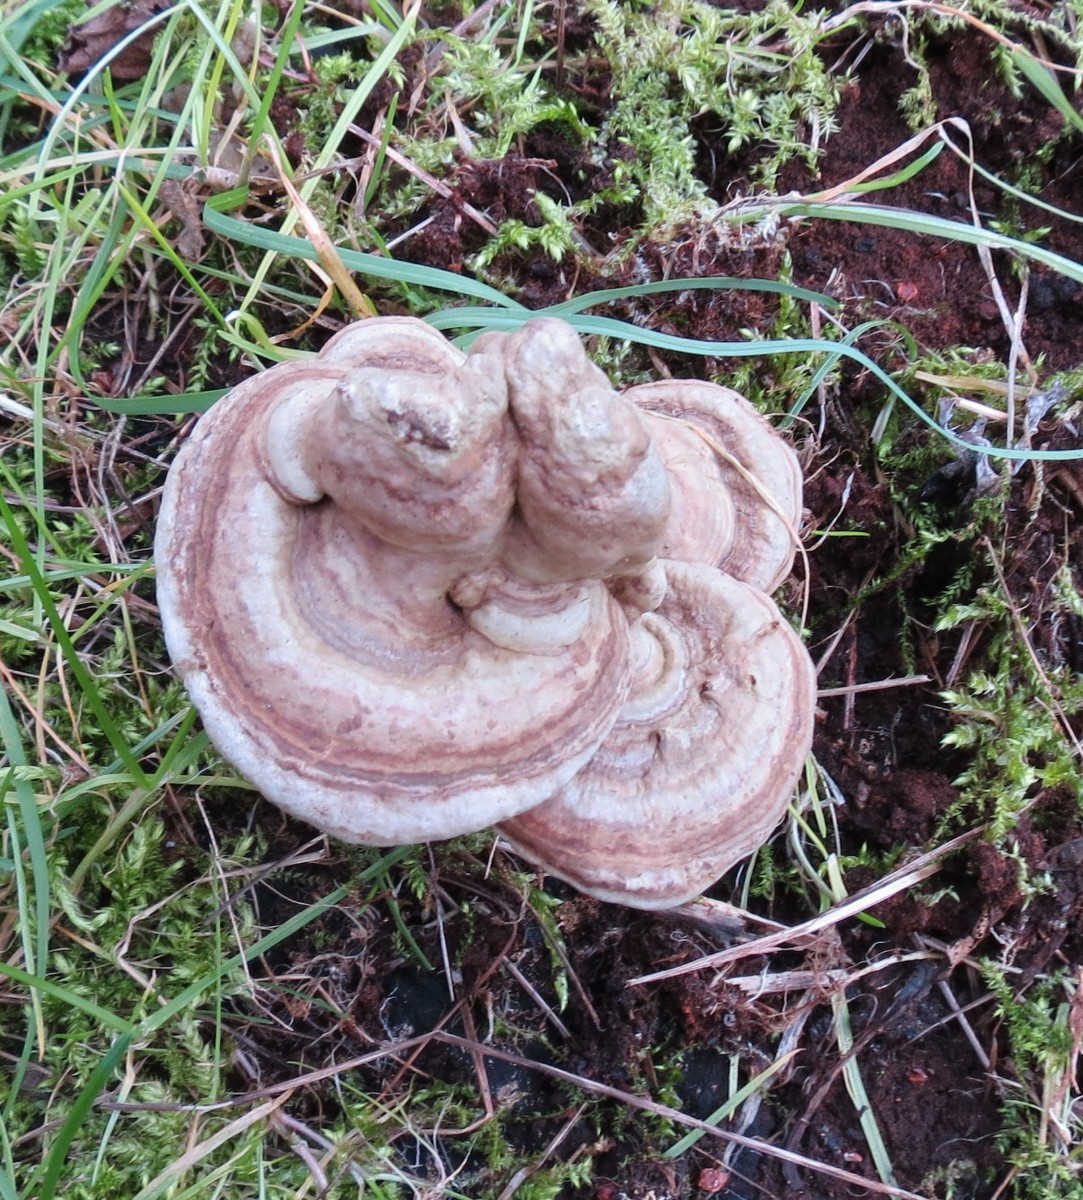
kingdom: Fungi
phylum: Basidiomycota
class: Agaricomycetes
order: Polyporales
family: Polyporaceae
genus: Ganoderma
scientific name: Ganoderma applanatum
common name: flad lakporesvamp
